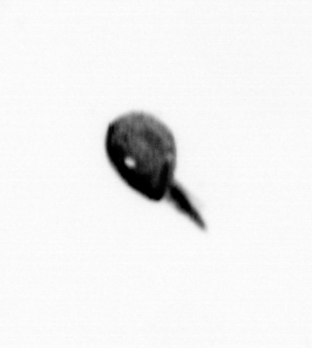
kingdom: Animalia
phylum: Arthropoda
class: Maxillopoda
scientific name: Maxillopoda
